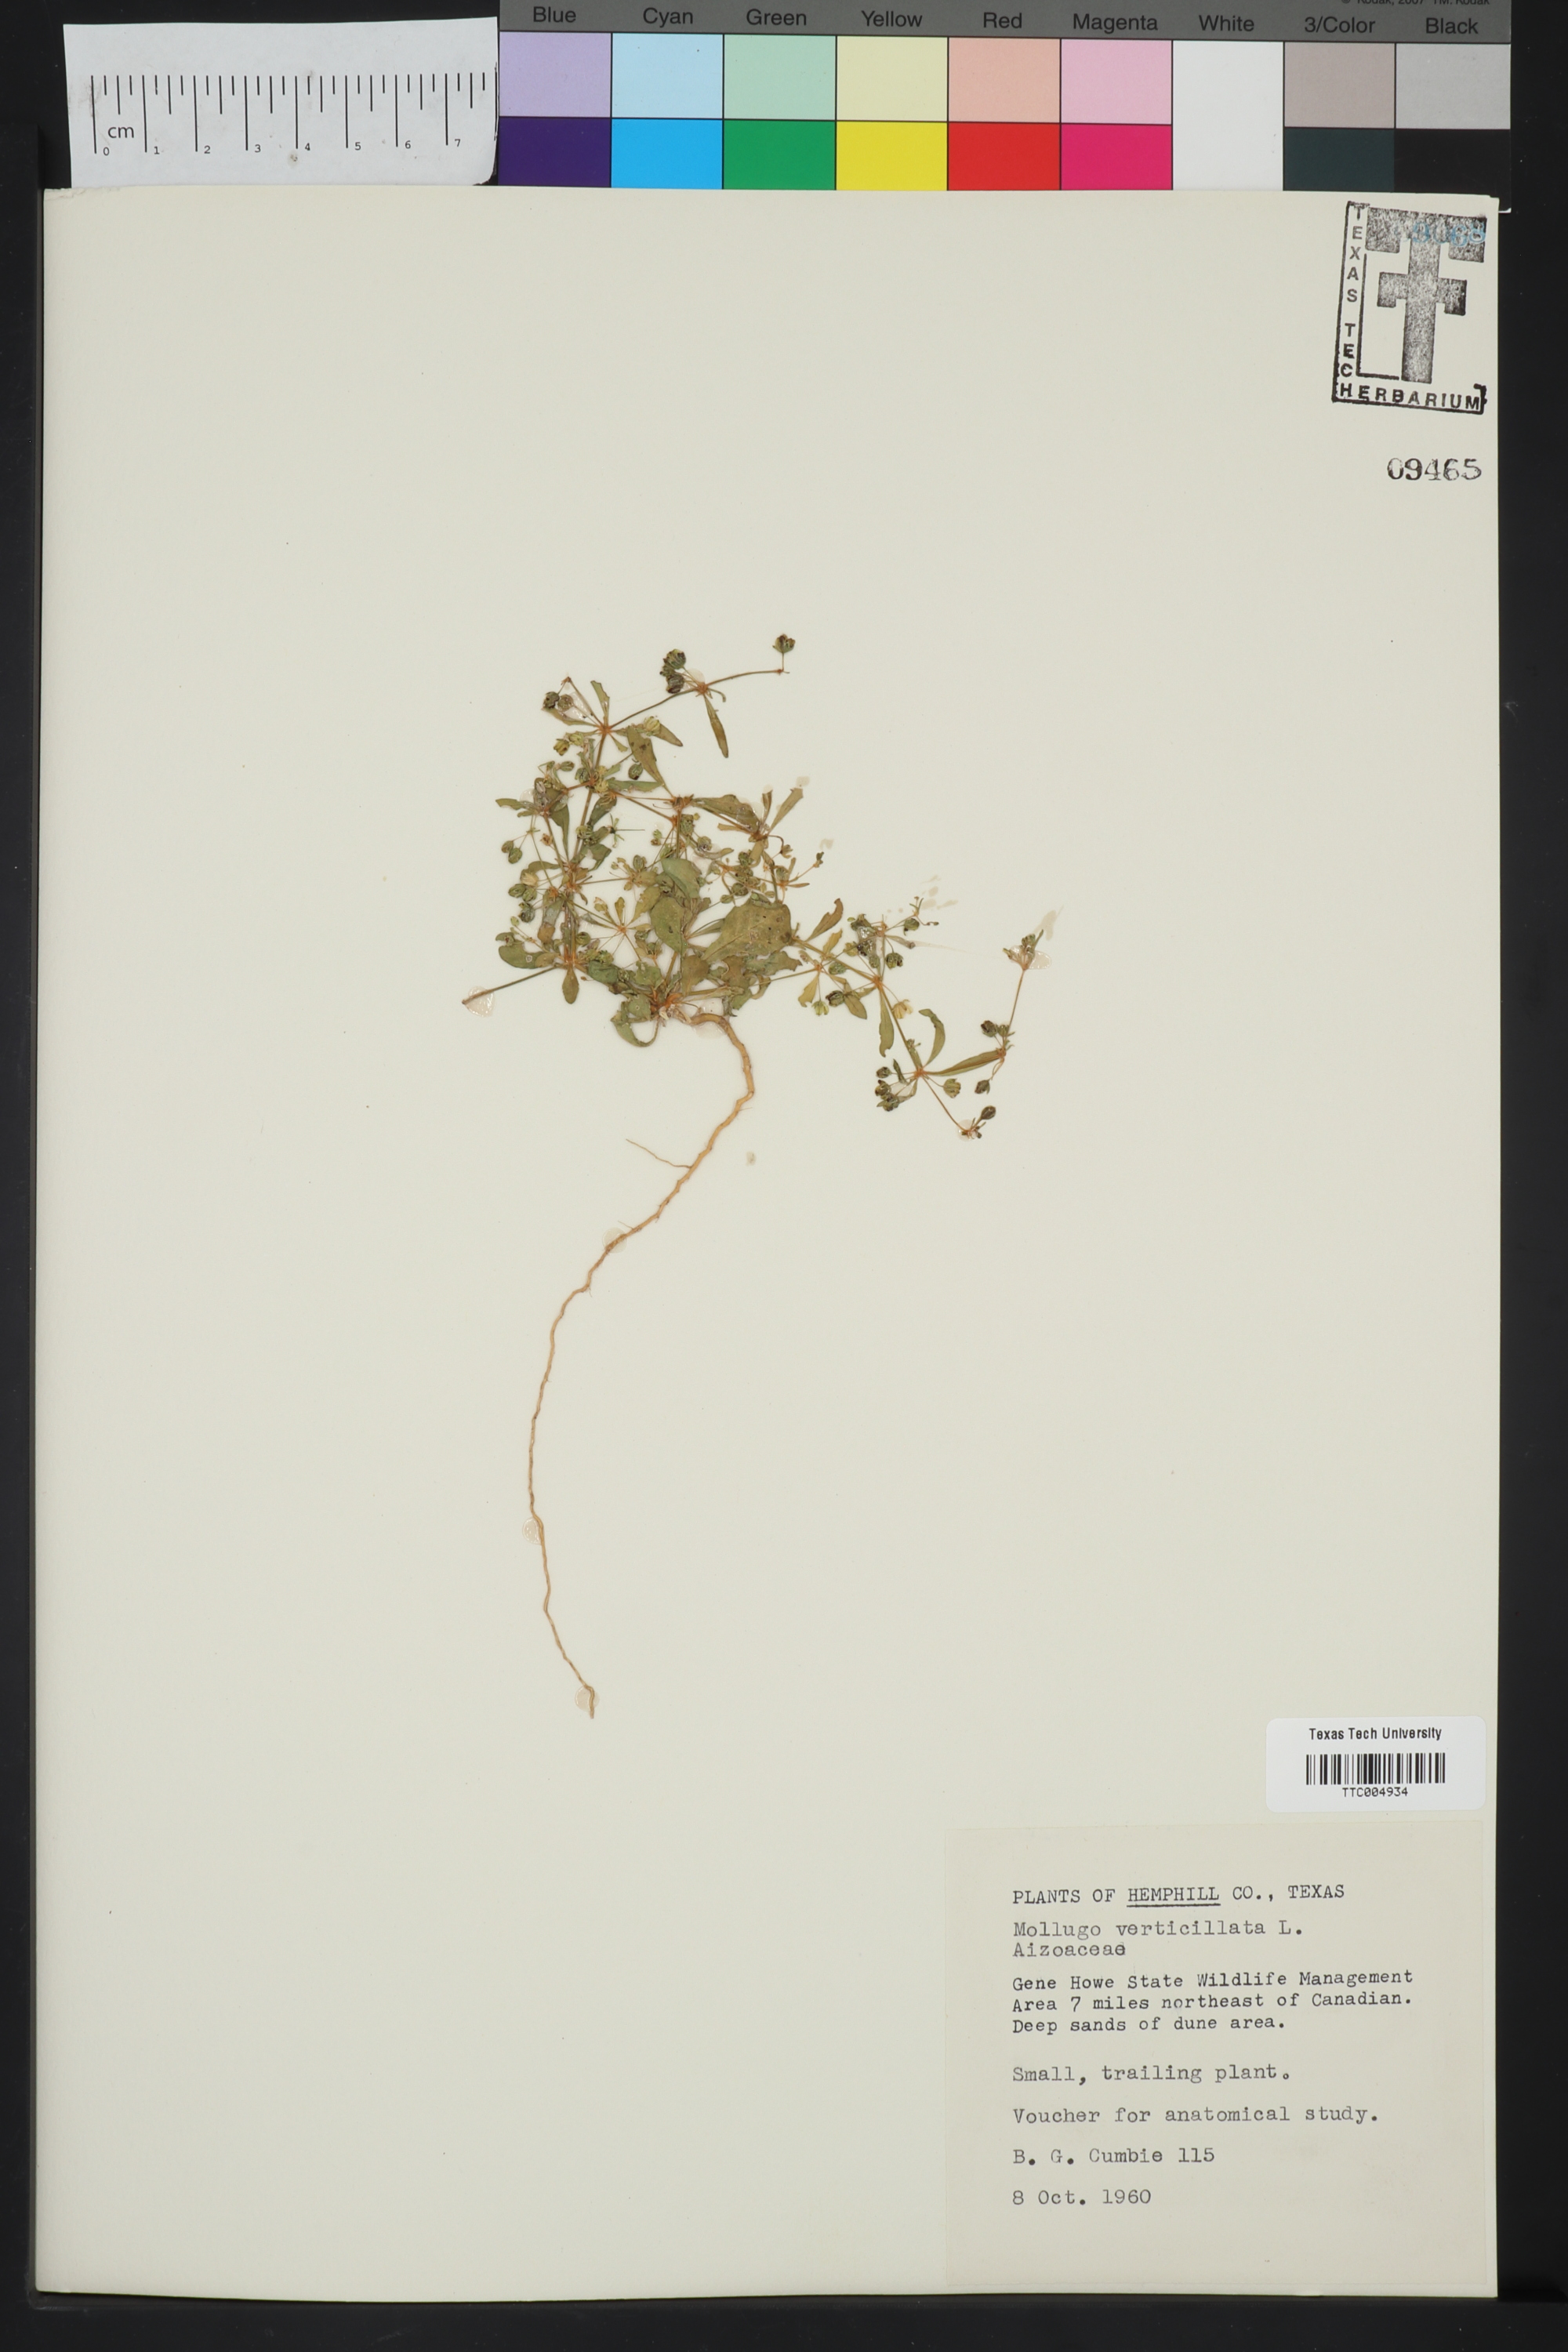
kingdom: Plantae
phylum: Tracheophyta
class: Magnoliopsida
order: Caryophyllales
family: Molluginaceae
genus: Mollugo
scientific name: Mollugo verticillata
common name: Green carpetweed
